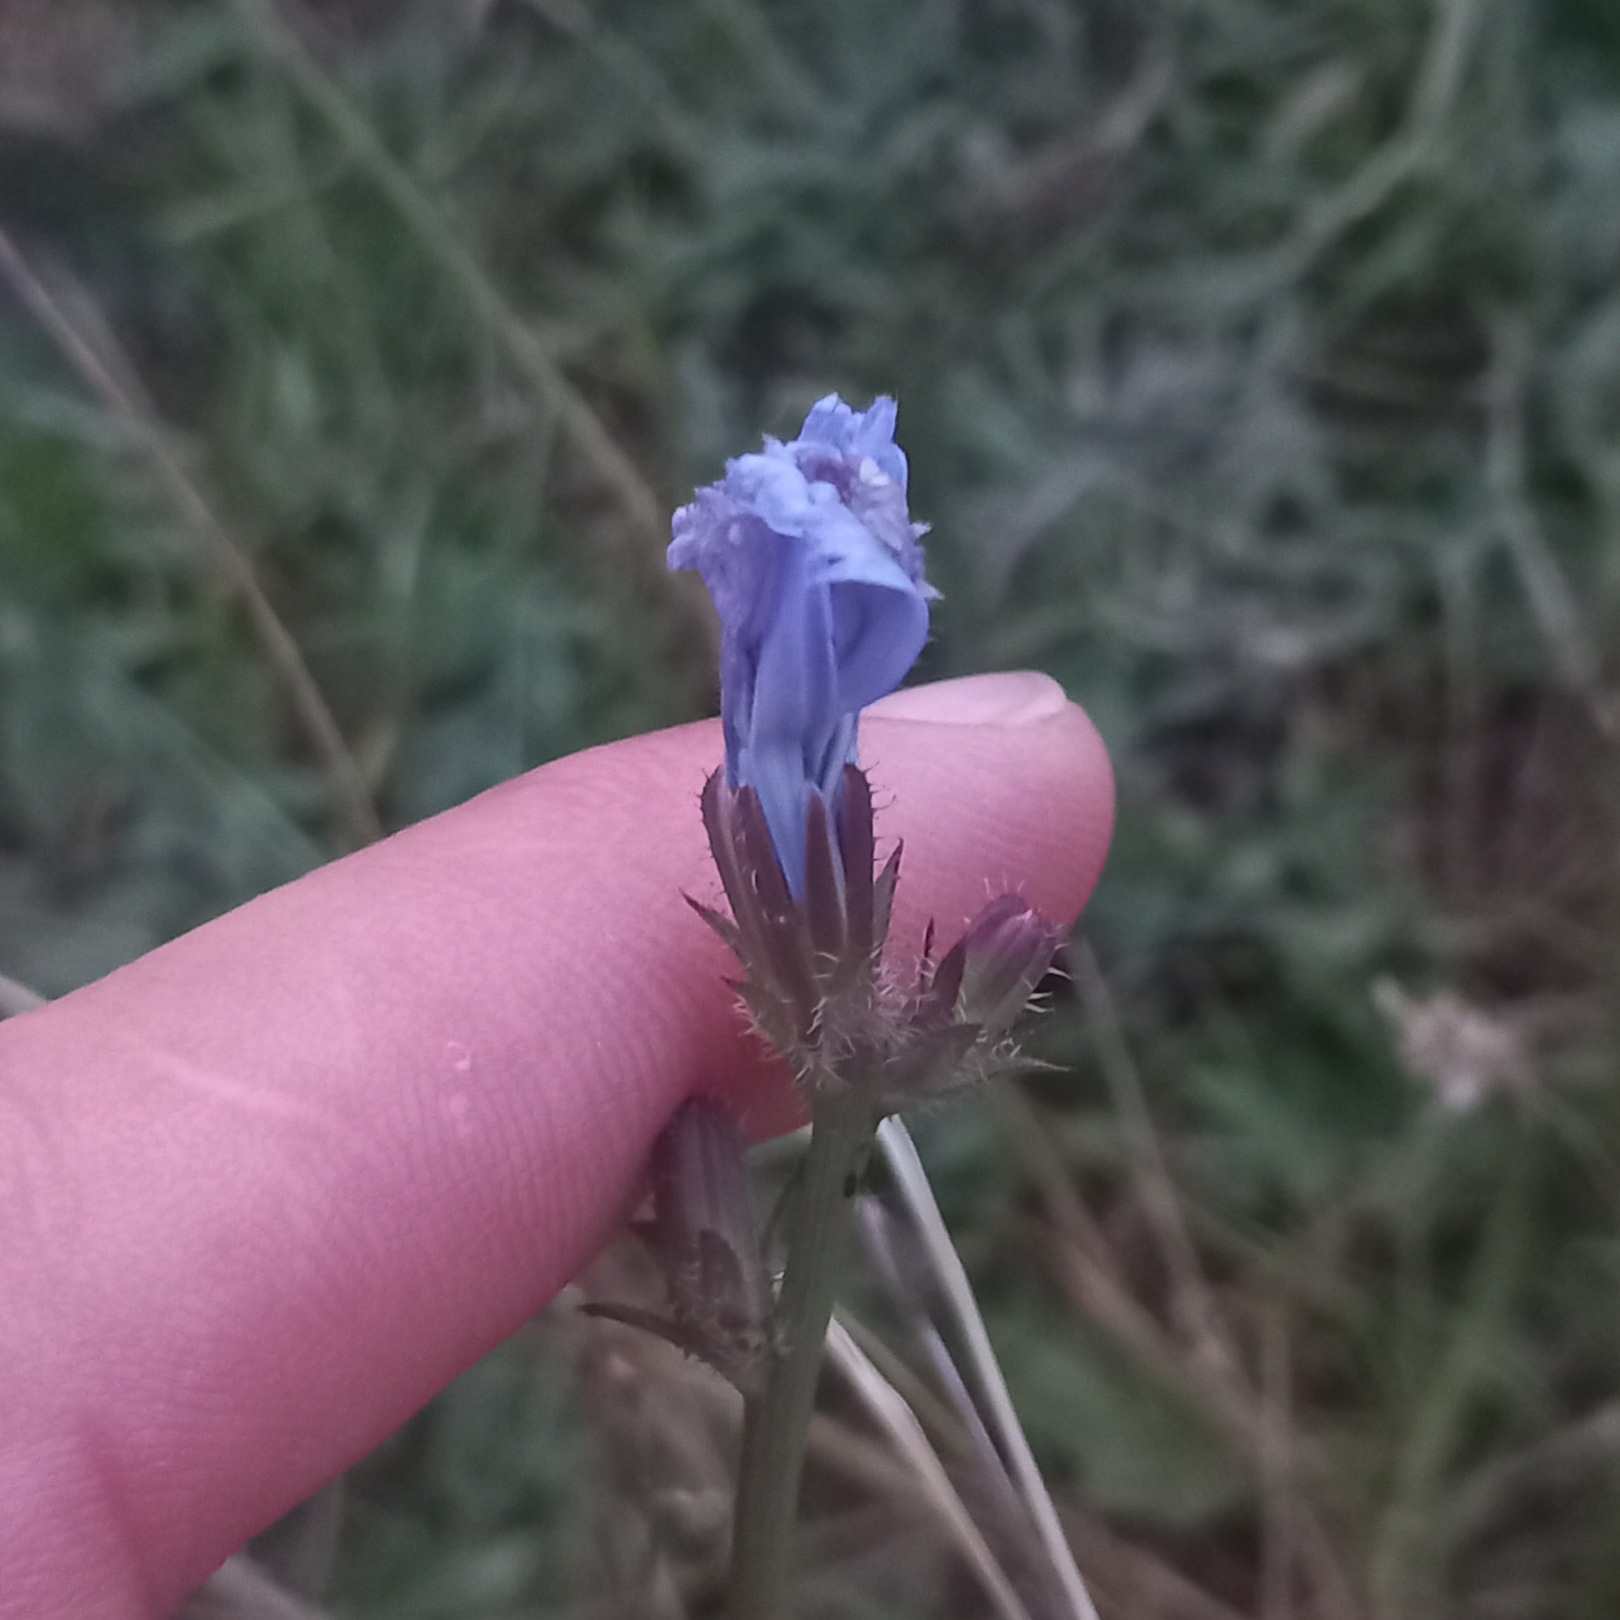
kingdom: Plantae
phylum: Tracheophyta
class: Magnoliopsida
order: Asterales
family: Asteraceae
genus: Cichorium
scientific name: Cichorium intybus
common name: Cikorie
